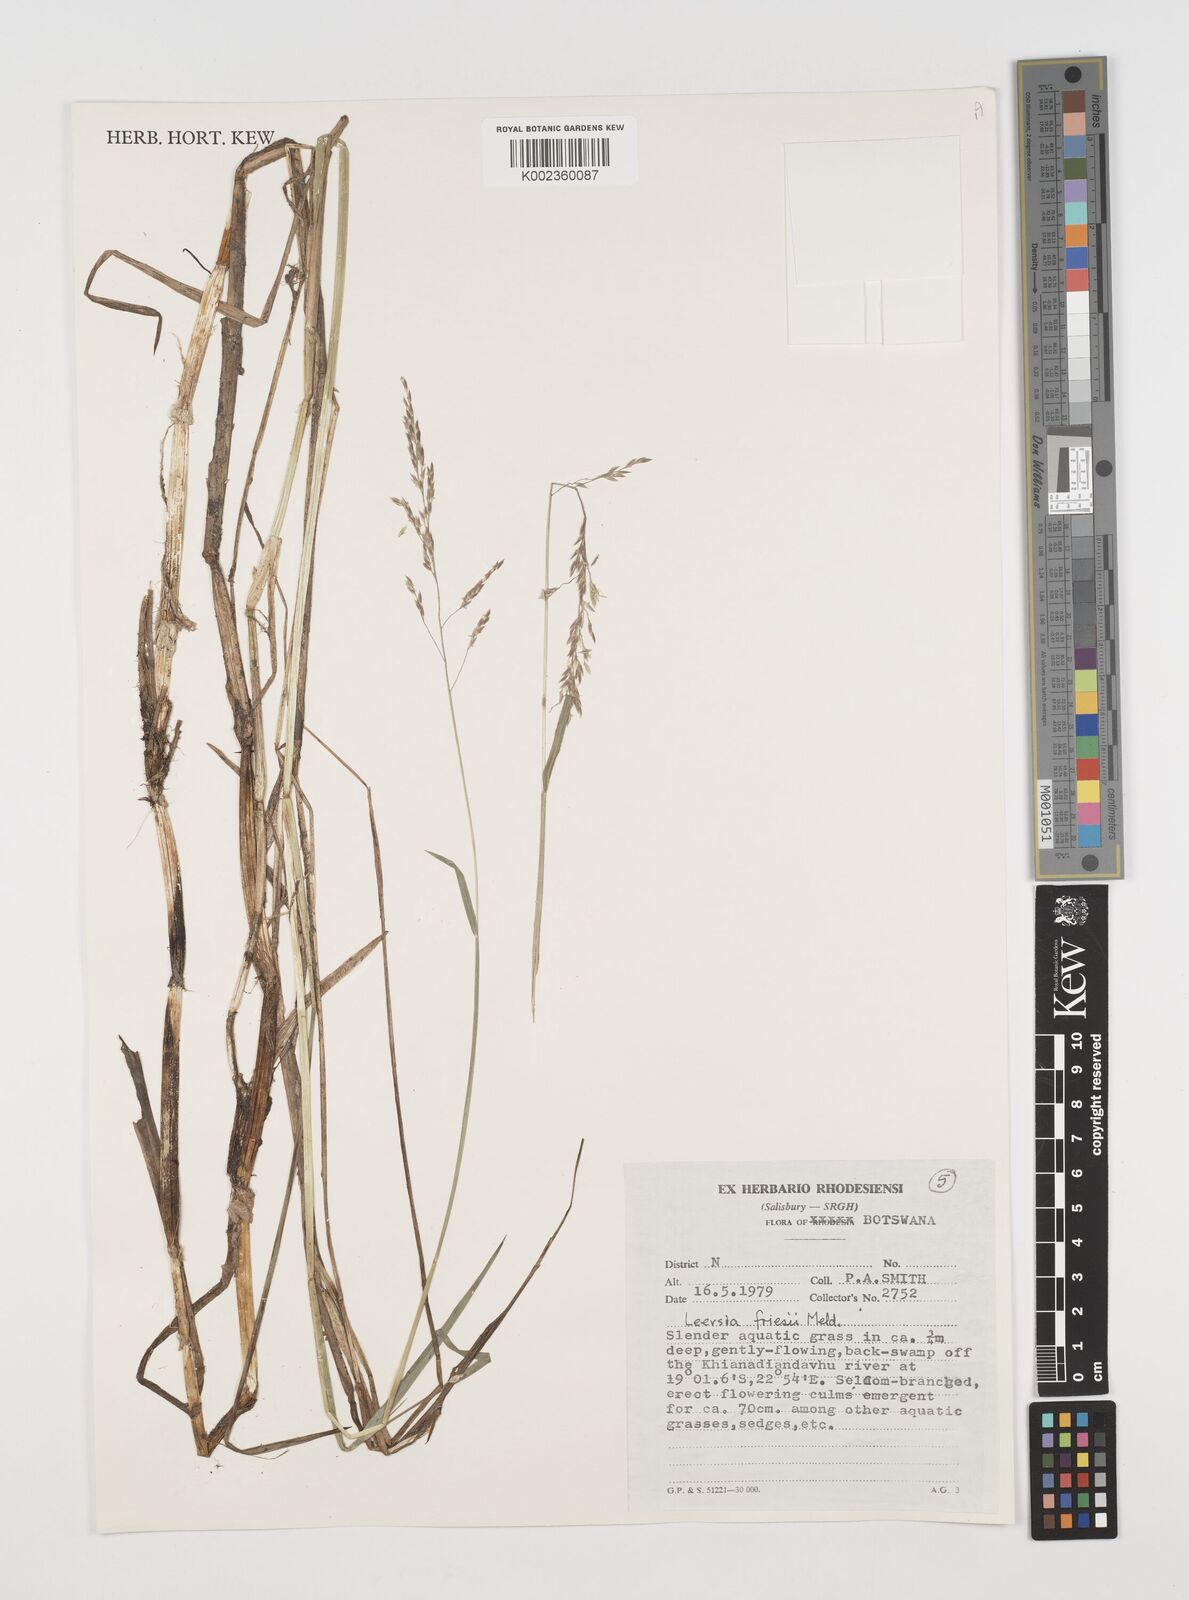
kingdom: Plantae
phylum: Tracheophyta
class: Liliopsida
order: Poales
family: Poaceae
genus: Leersia
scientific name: Leersia friesii
